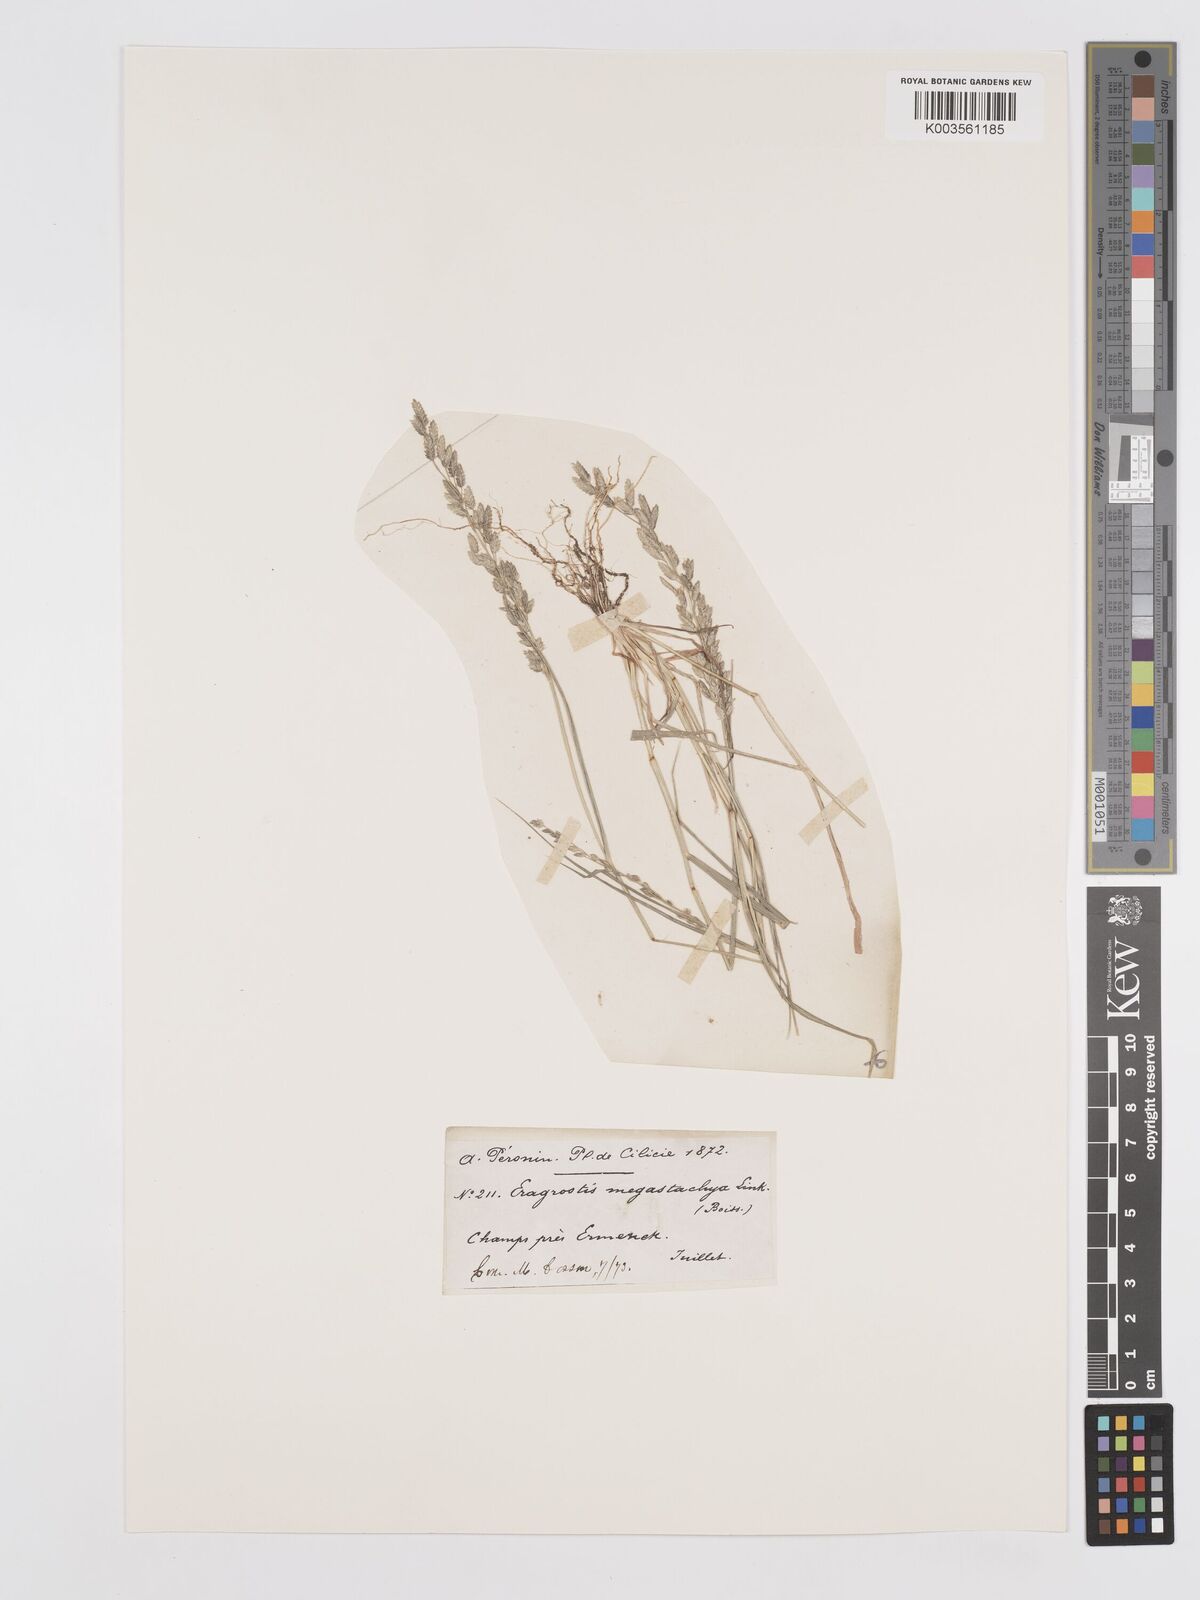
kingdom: Plantae
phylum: Tracheophyta
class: Liliopsida
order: Poales
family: Poaceae
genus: Eragrostis
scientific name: Eragrostis cilianensis
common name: Stinkgrass
